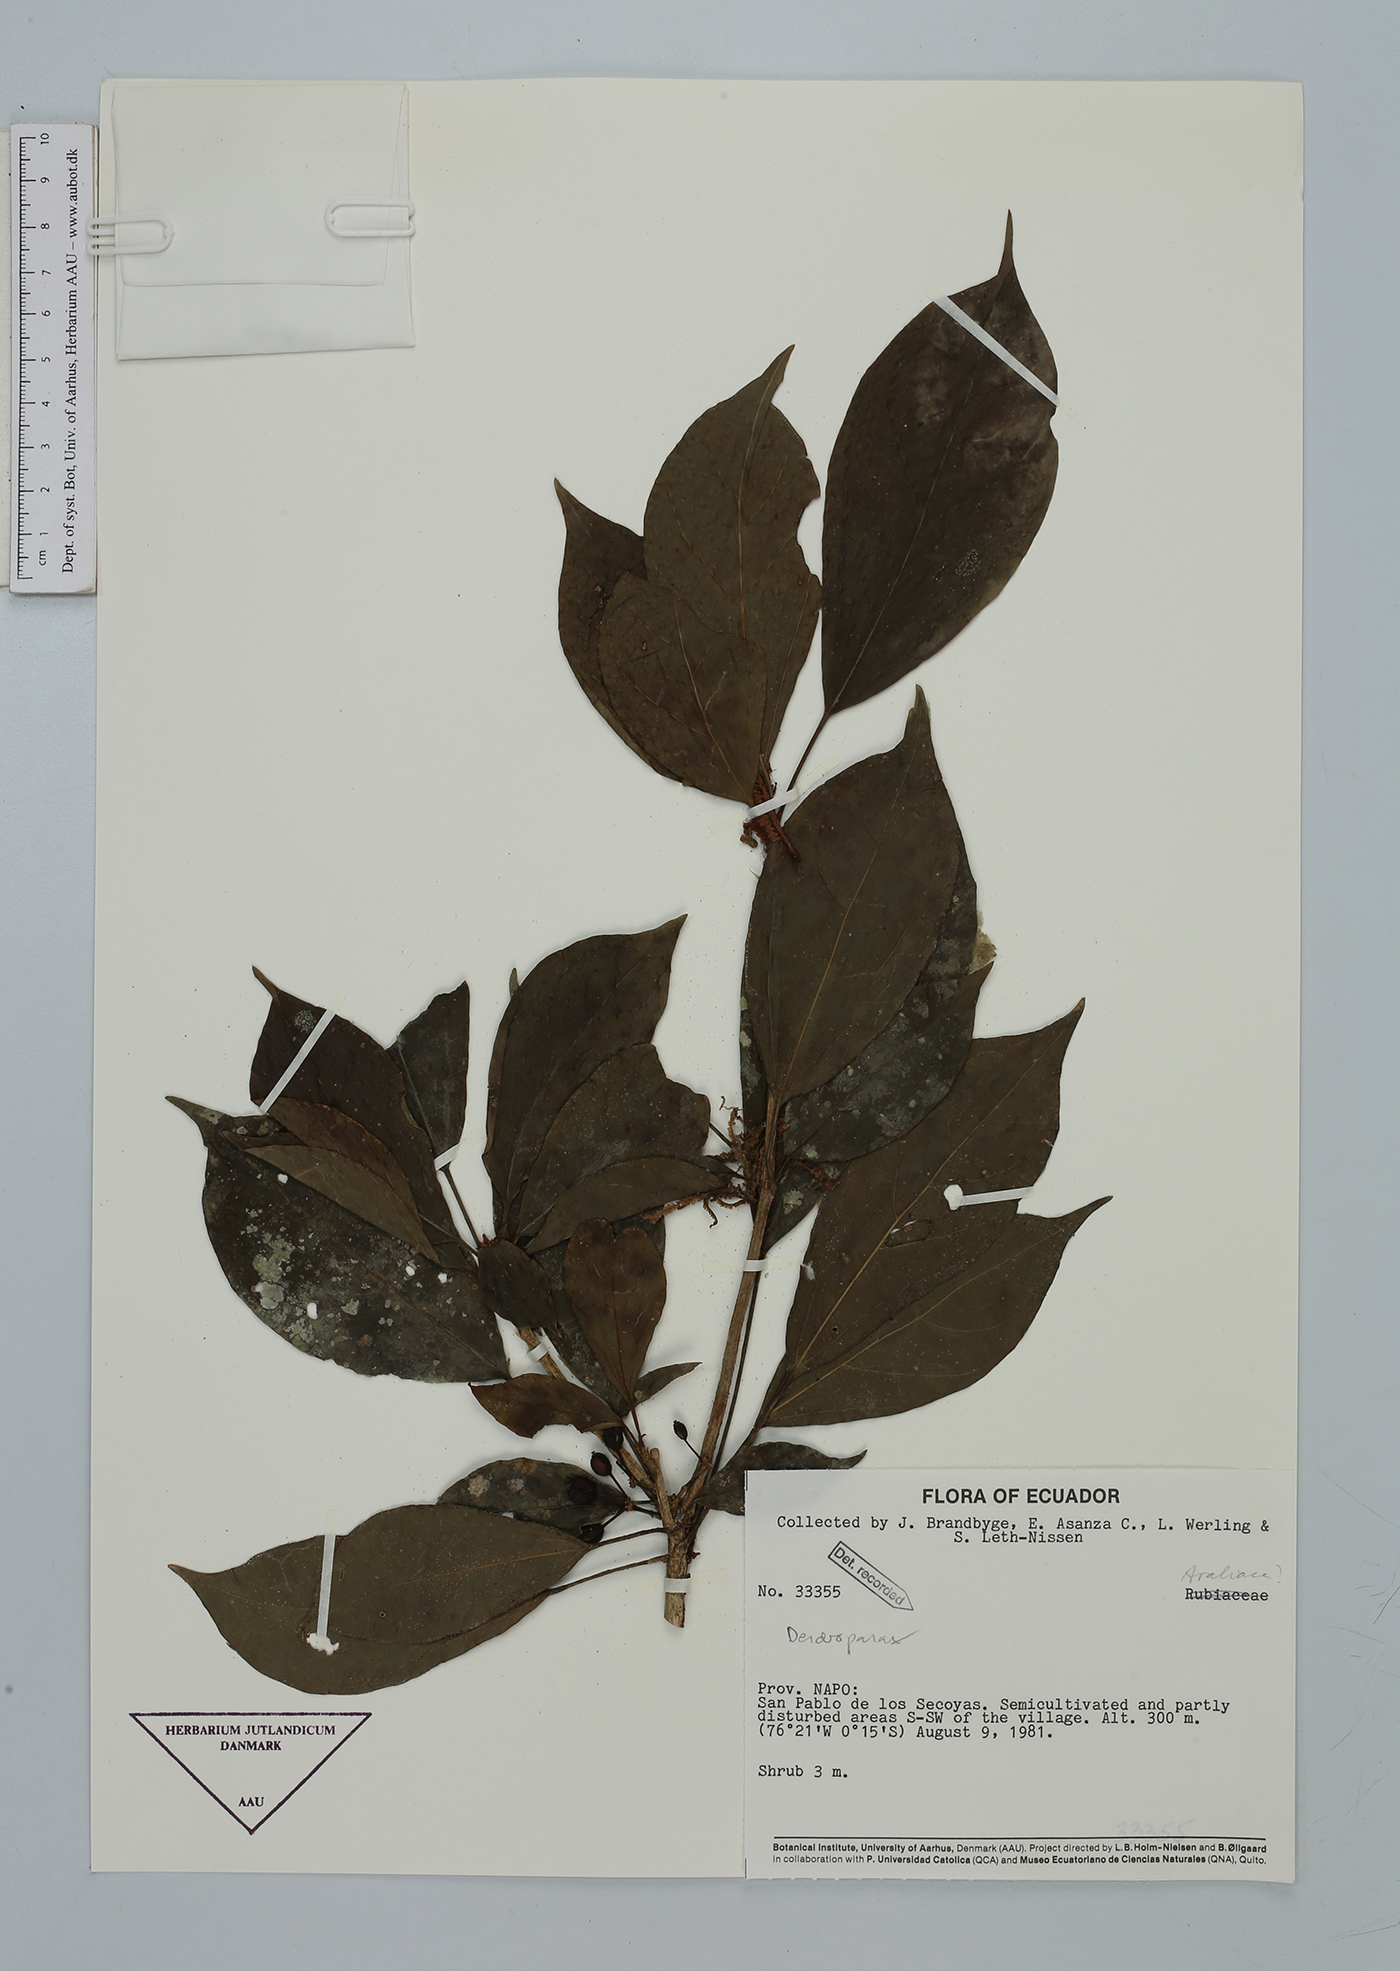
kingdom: Plantae
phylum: Tracheophyta
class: Magnoliopsida
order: Apiales
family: Araliaceae
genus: Dendropanax
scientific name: Dendropanax
